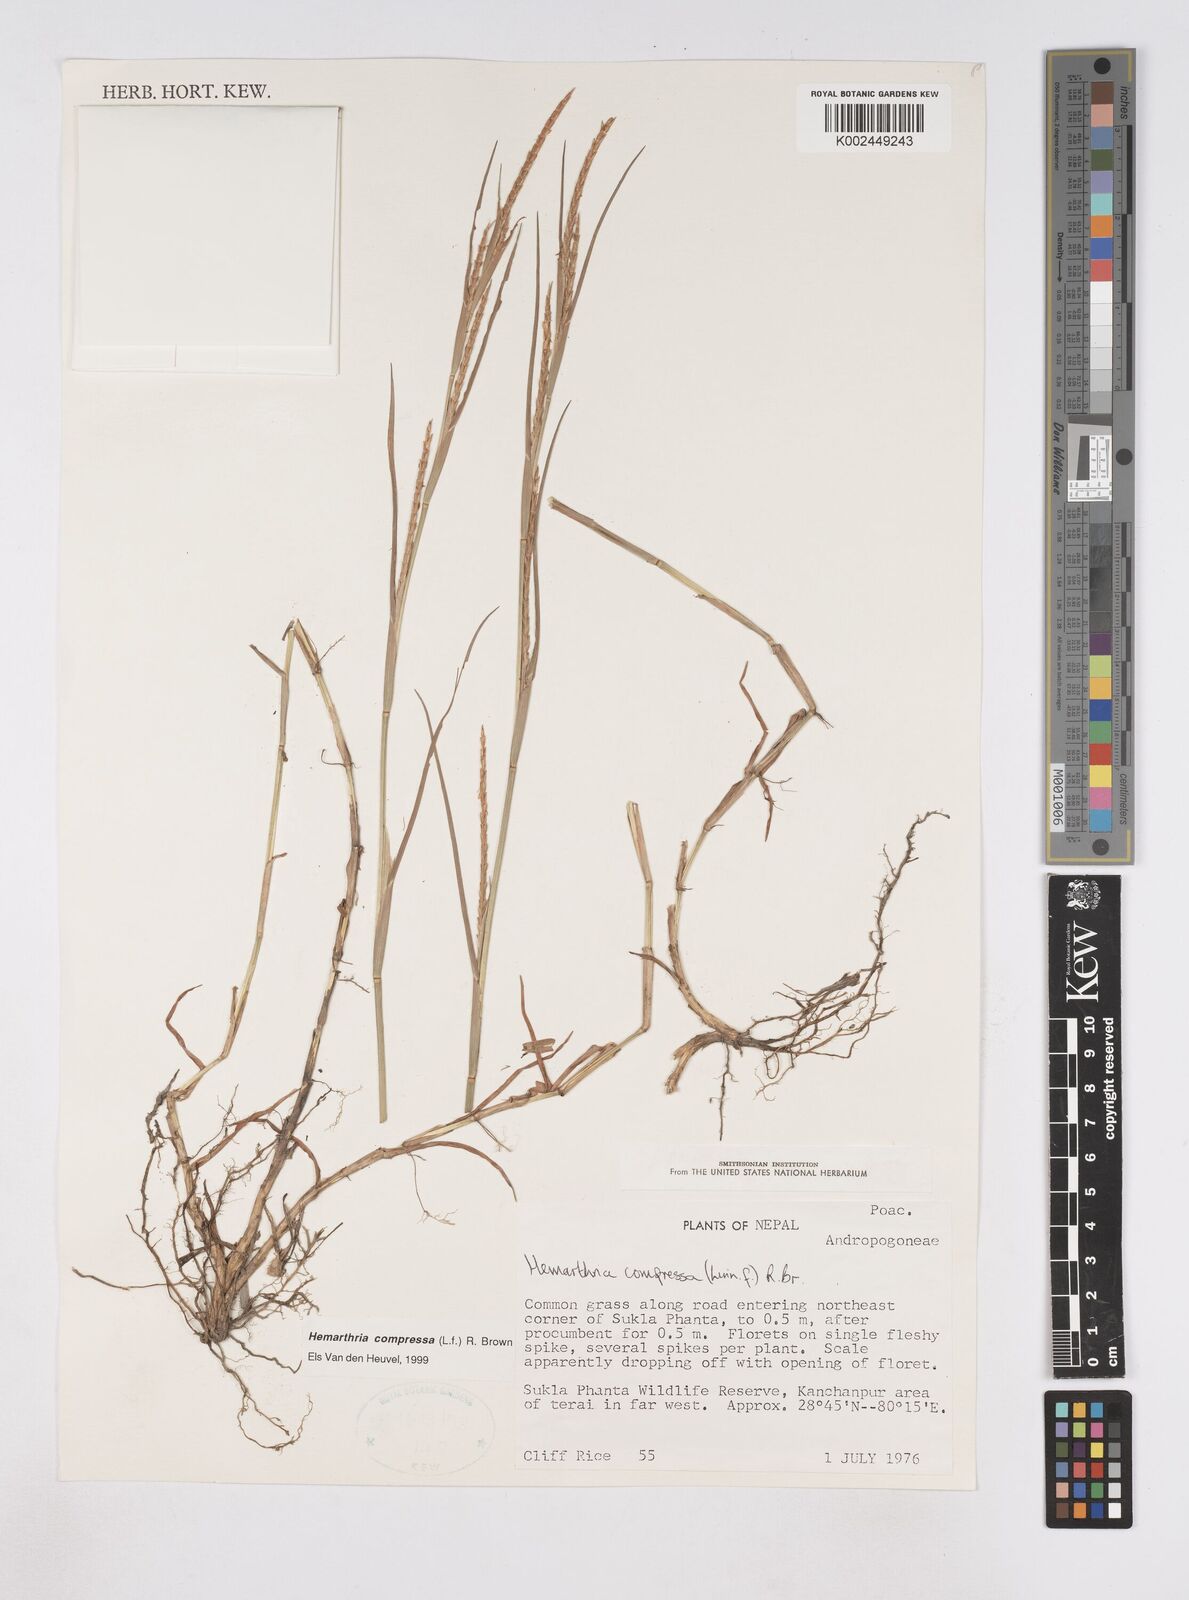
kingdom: Plantae
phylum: Tracheophyta
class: Liliopsida
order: Poales
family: Poaceae
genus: Hemarthria
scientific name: Hemarthria compressa
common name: Whip grass
